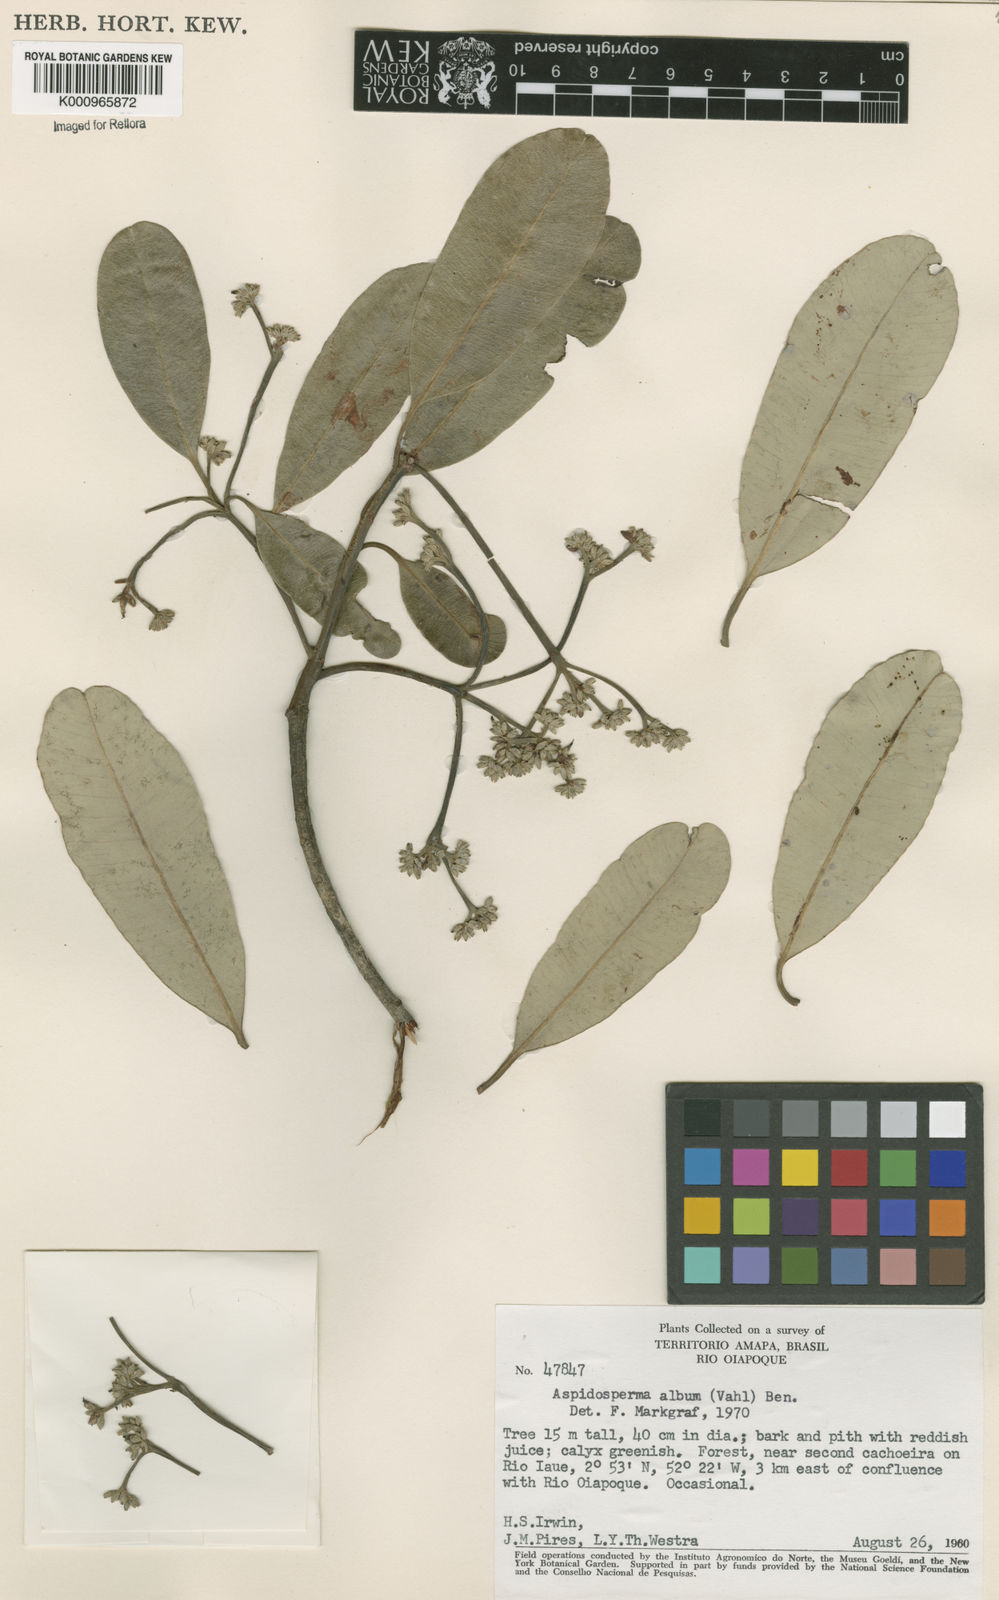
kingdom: Plantae
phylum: Tracheophyta
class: Magnoliopsida
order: Gentianales
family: Apocynaceae
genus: Aspidosperma
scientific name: Aspidosperma album
